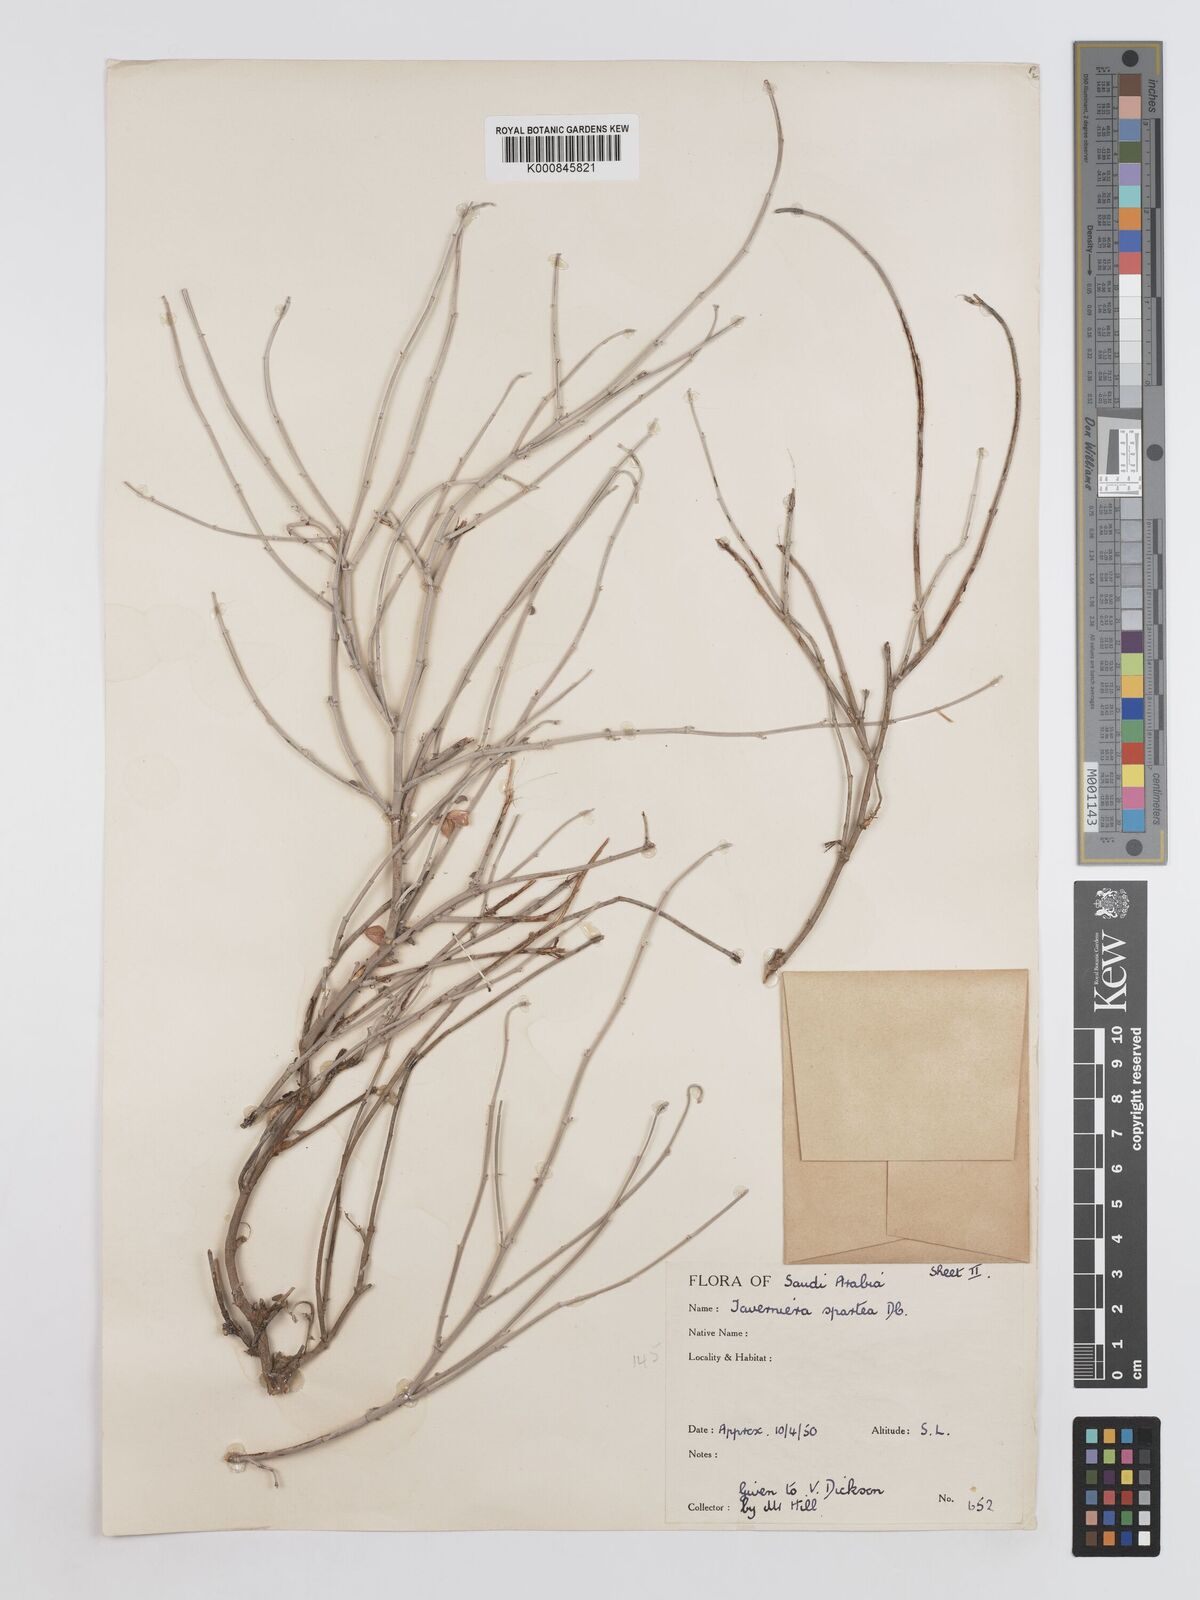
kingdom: Plantae
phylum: Tracheophyta
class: Magnoliopsida
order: Fabales
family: Fabaceae
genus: Taverniera
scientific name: Taverniera spartea
